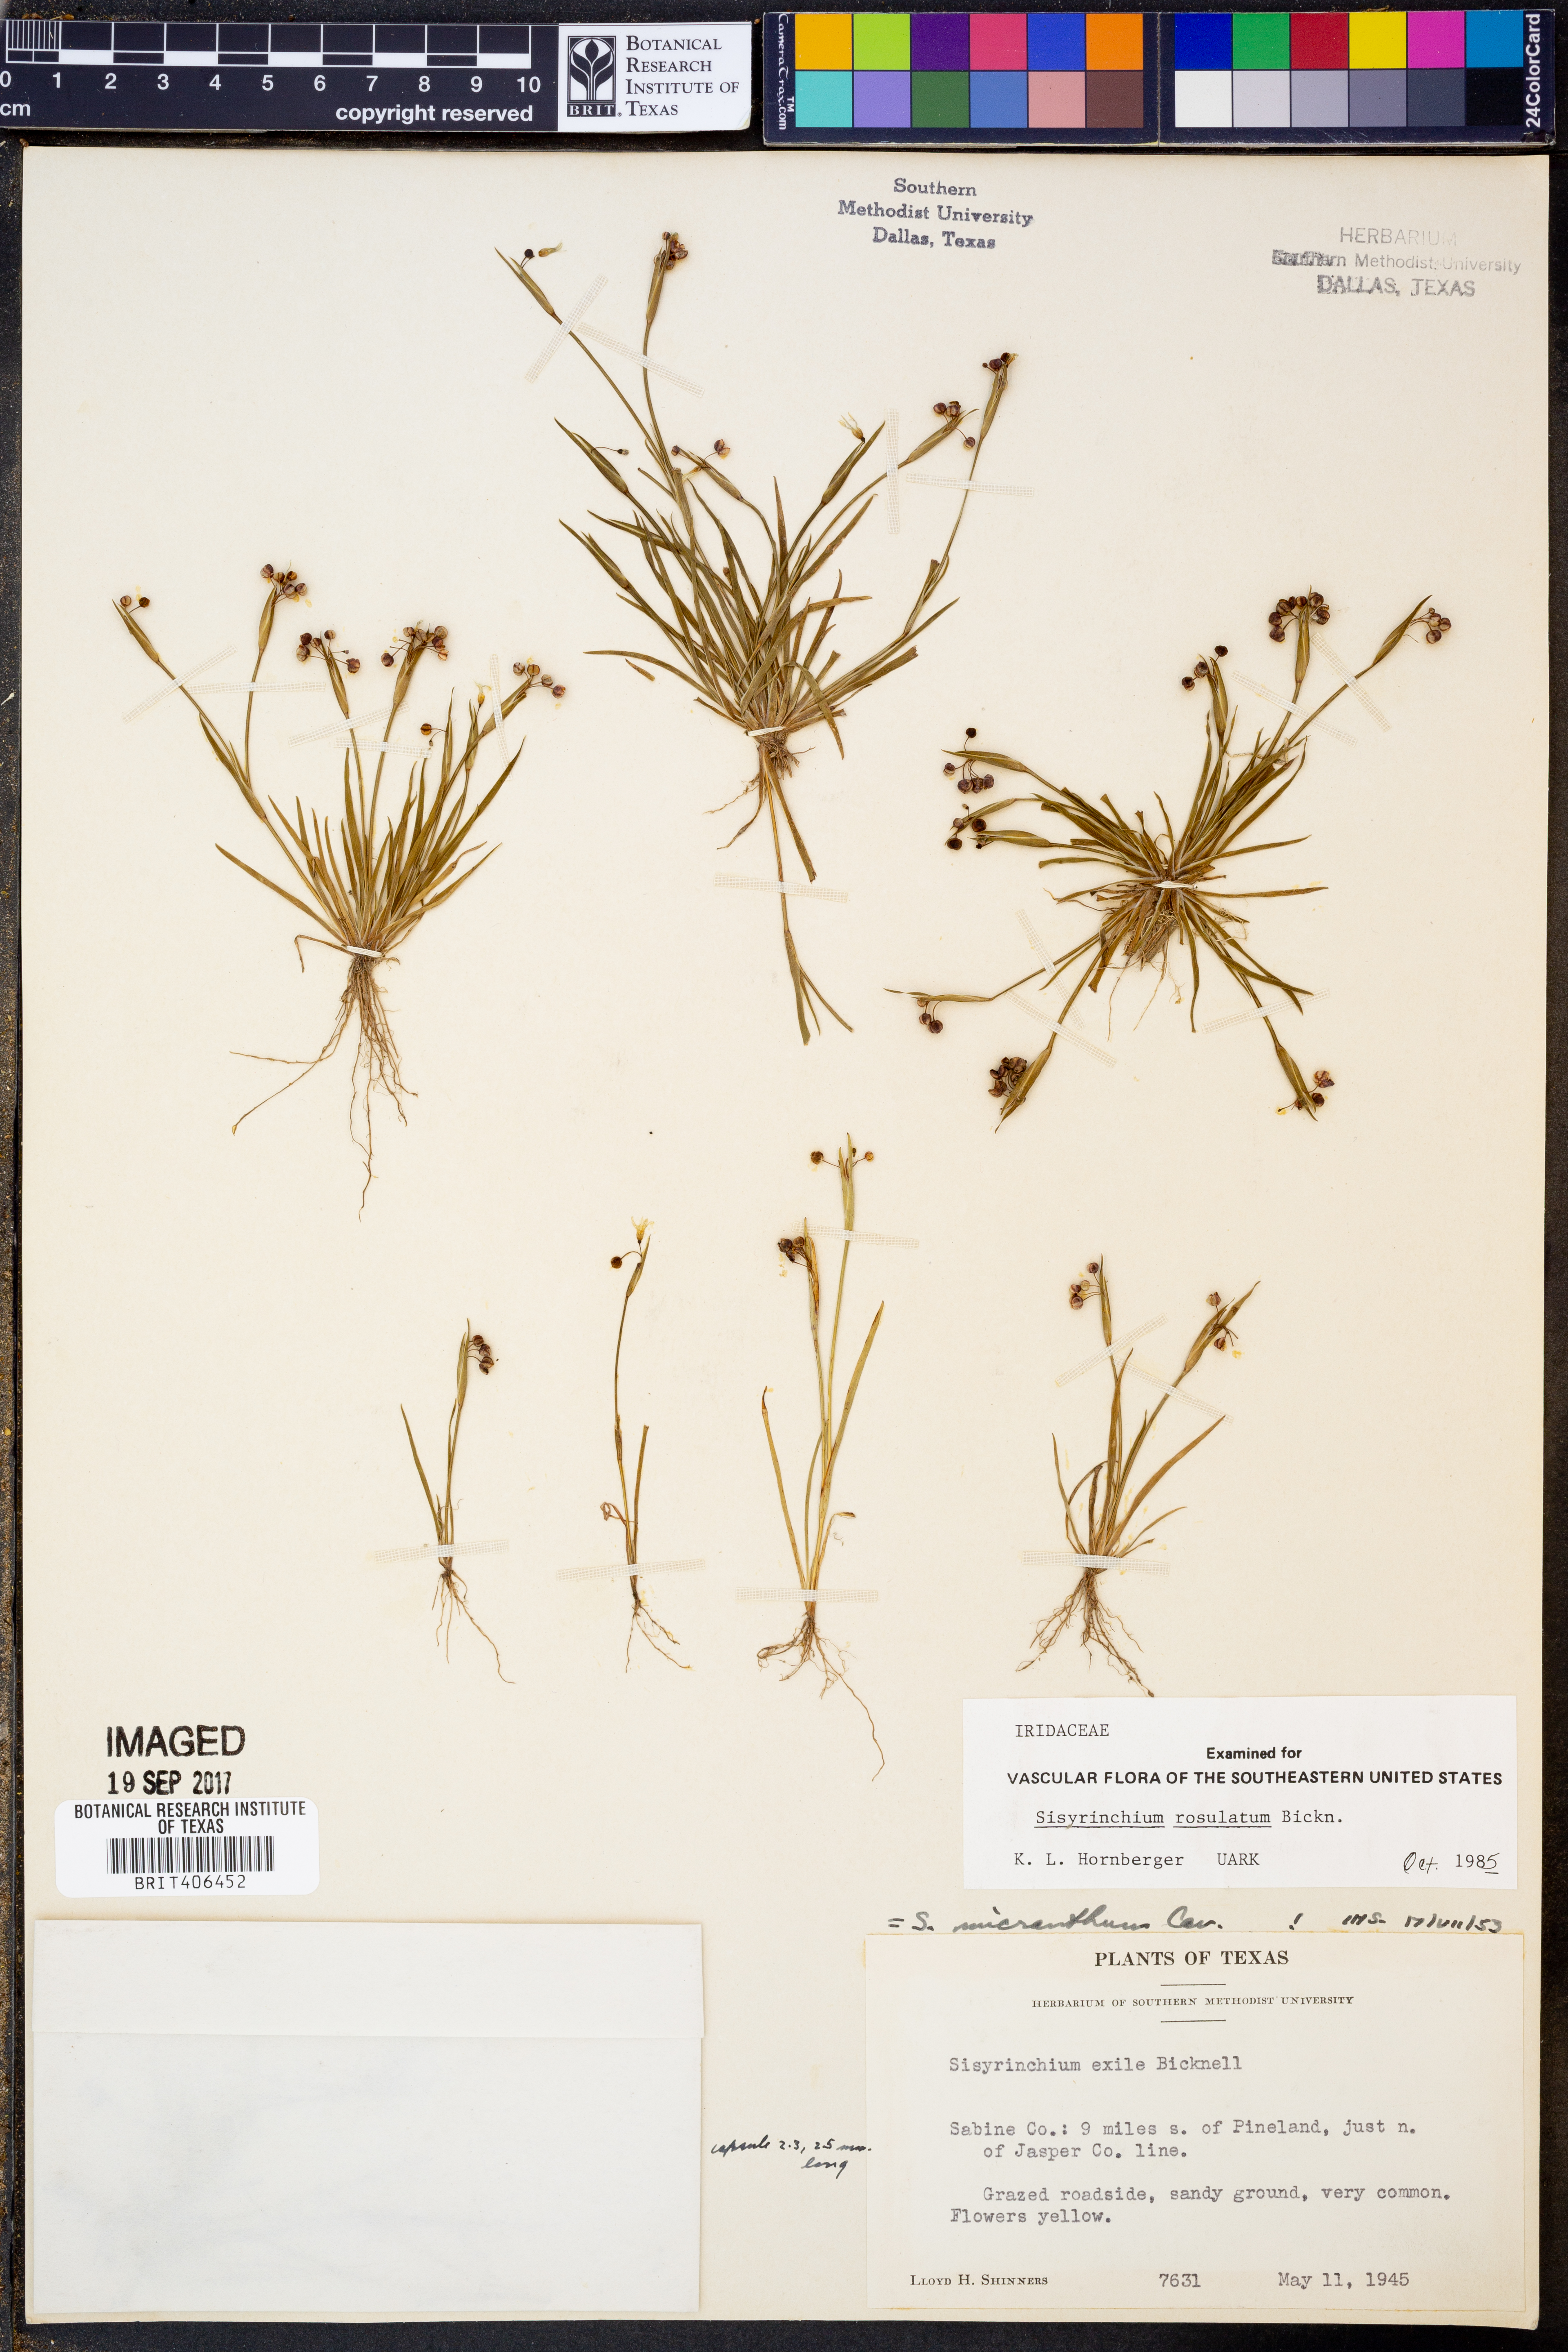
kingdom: Plantae
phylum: Tracheophyta
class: Liliopsida
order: Asparagales
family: Iridaceae
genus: Sisyrinchium
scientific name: Sisyrinchium rosulatum
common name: Annual blue-eyed grass
